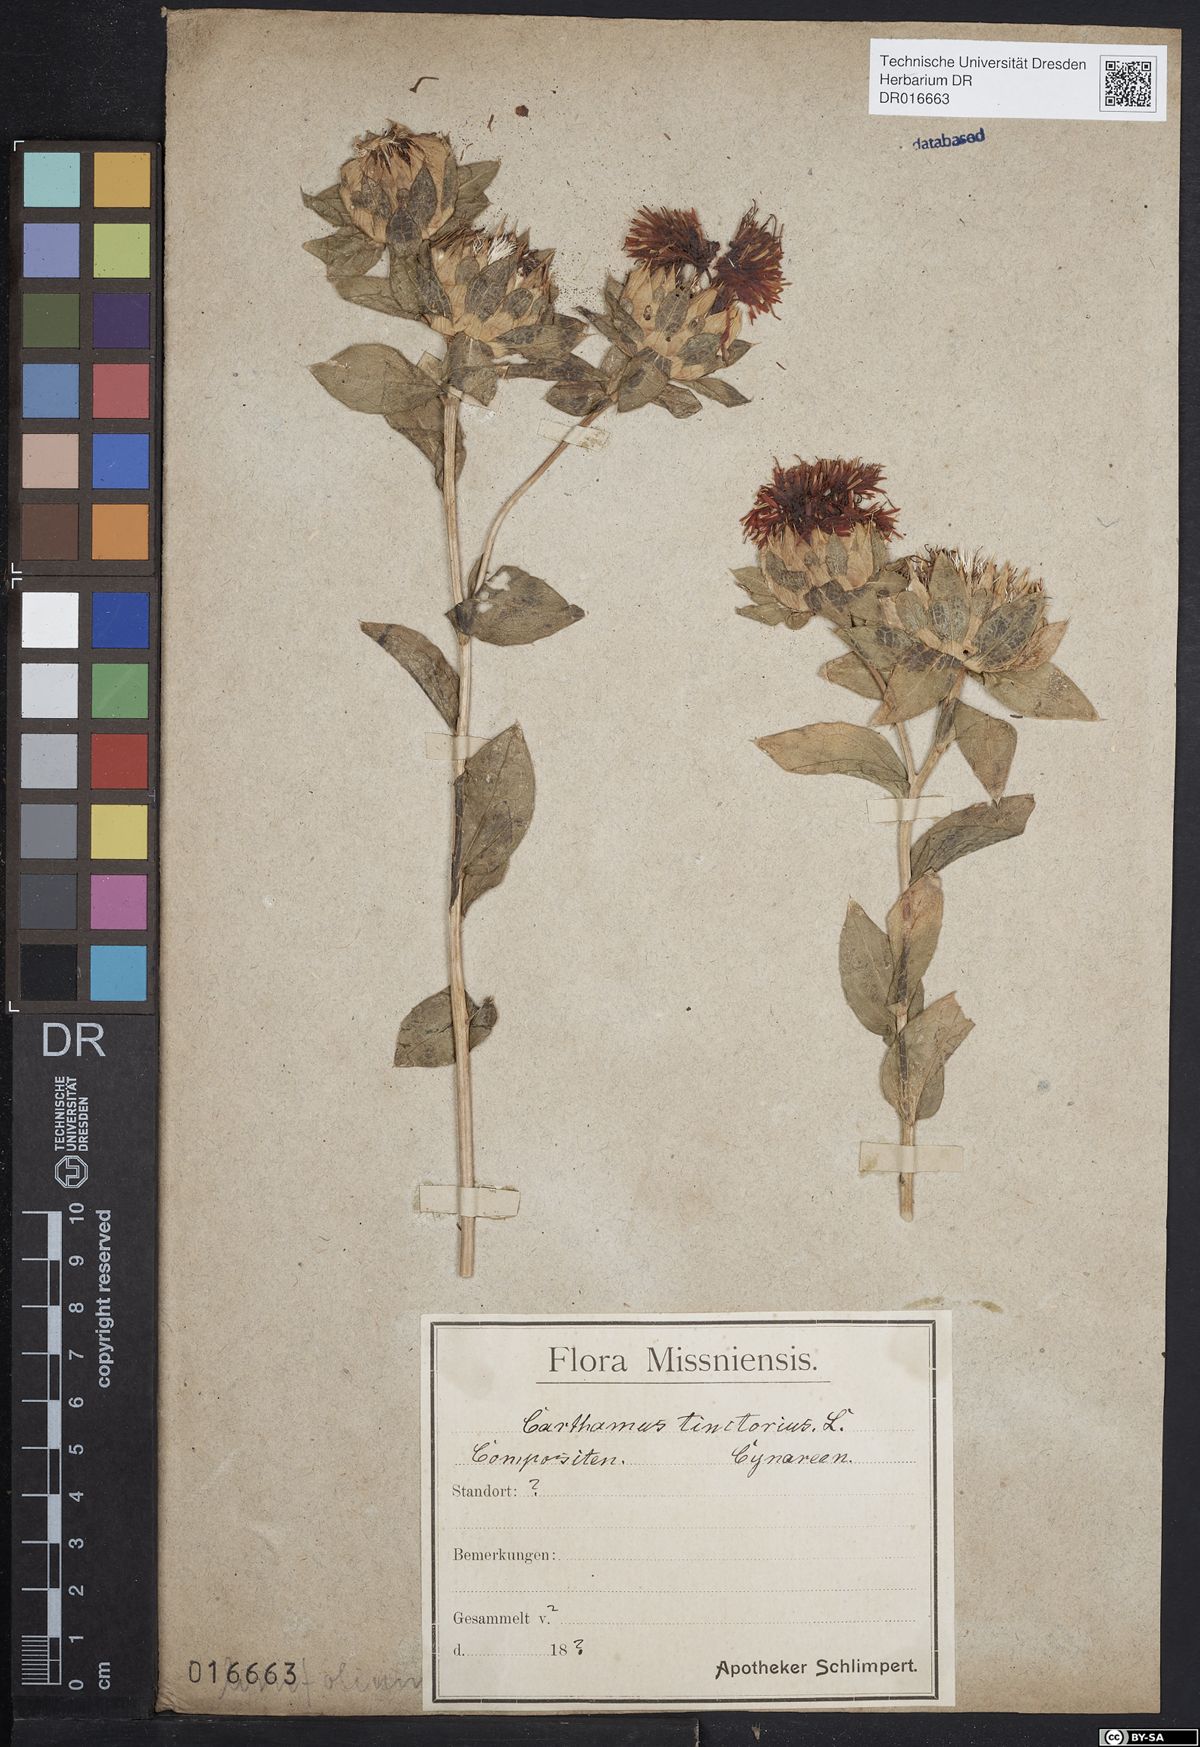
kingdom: Plantae
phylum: Tracheophyta
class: Magnoliopsida
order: Asterales
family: Asteraceae
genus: Carthamus
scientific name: Carthamus tinctorius
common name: Safflower
